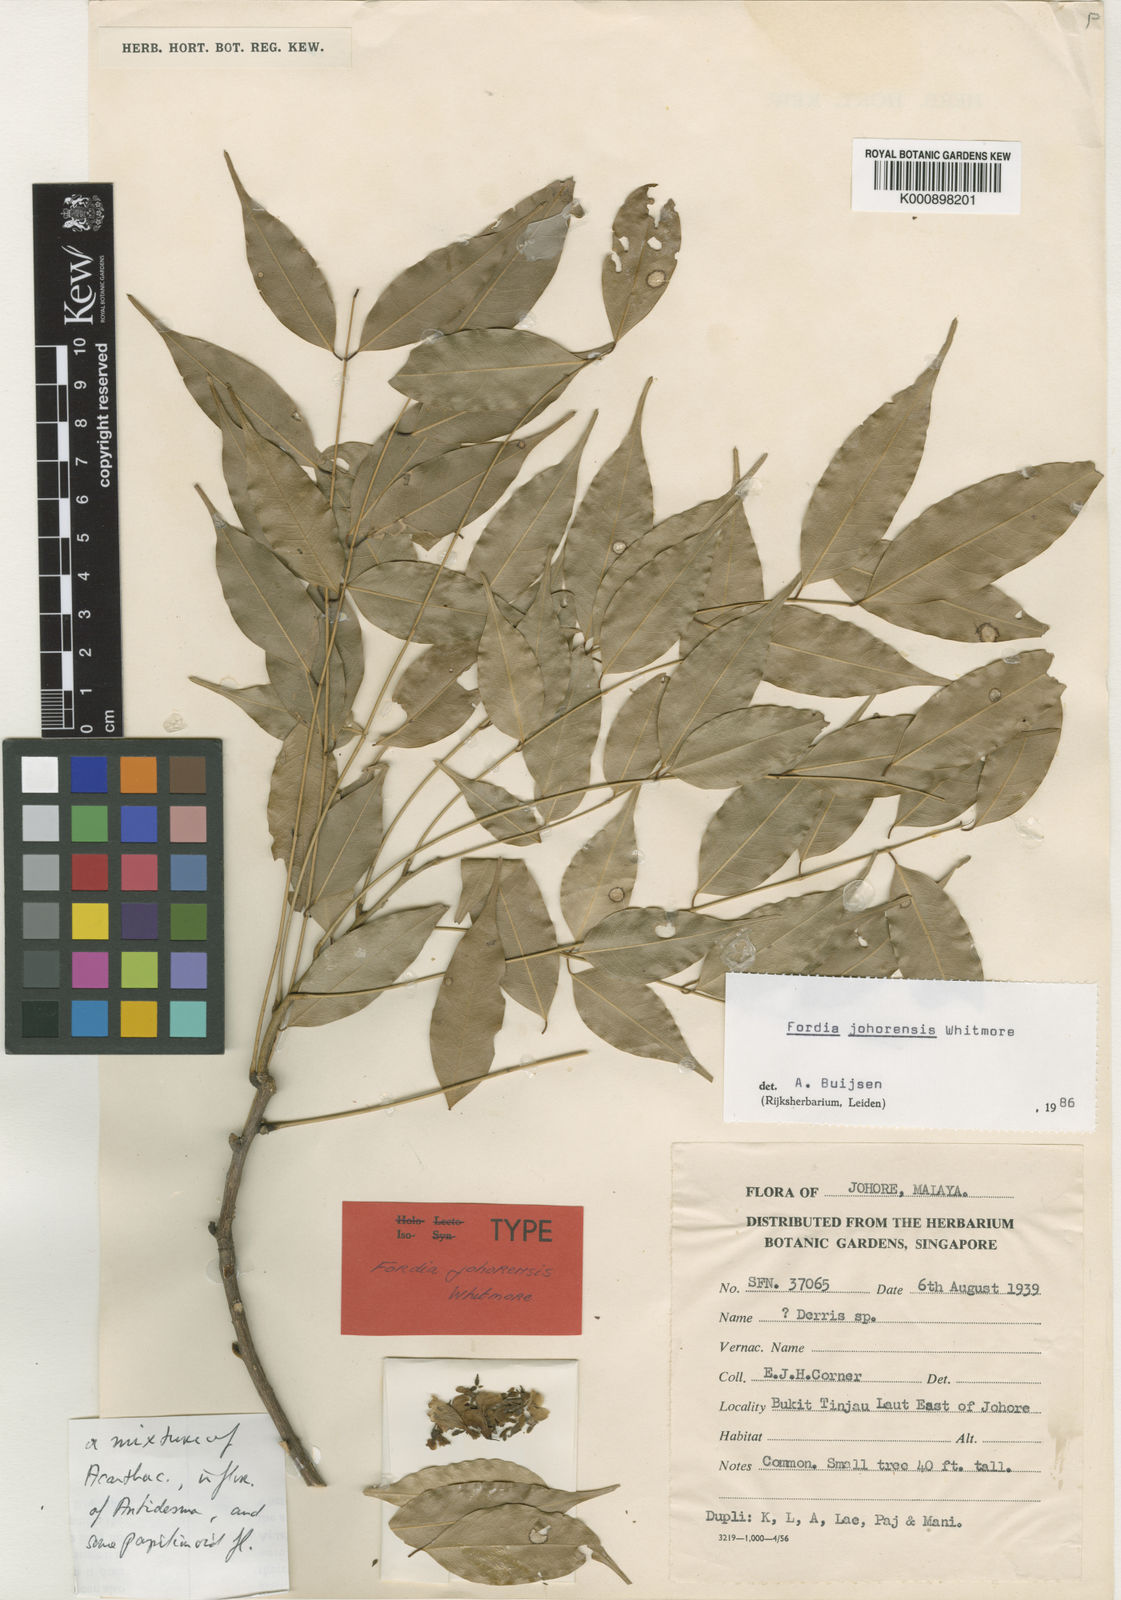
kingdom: Plantae
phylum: Tracheophyta
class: Magnoliopsida
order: Fabales
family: Fabaceae
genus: Fordia
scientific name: Fordia johorensis
